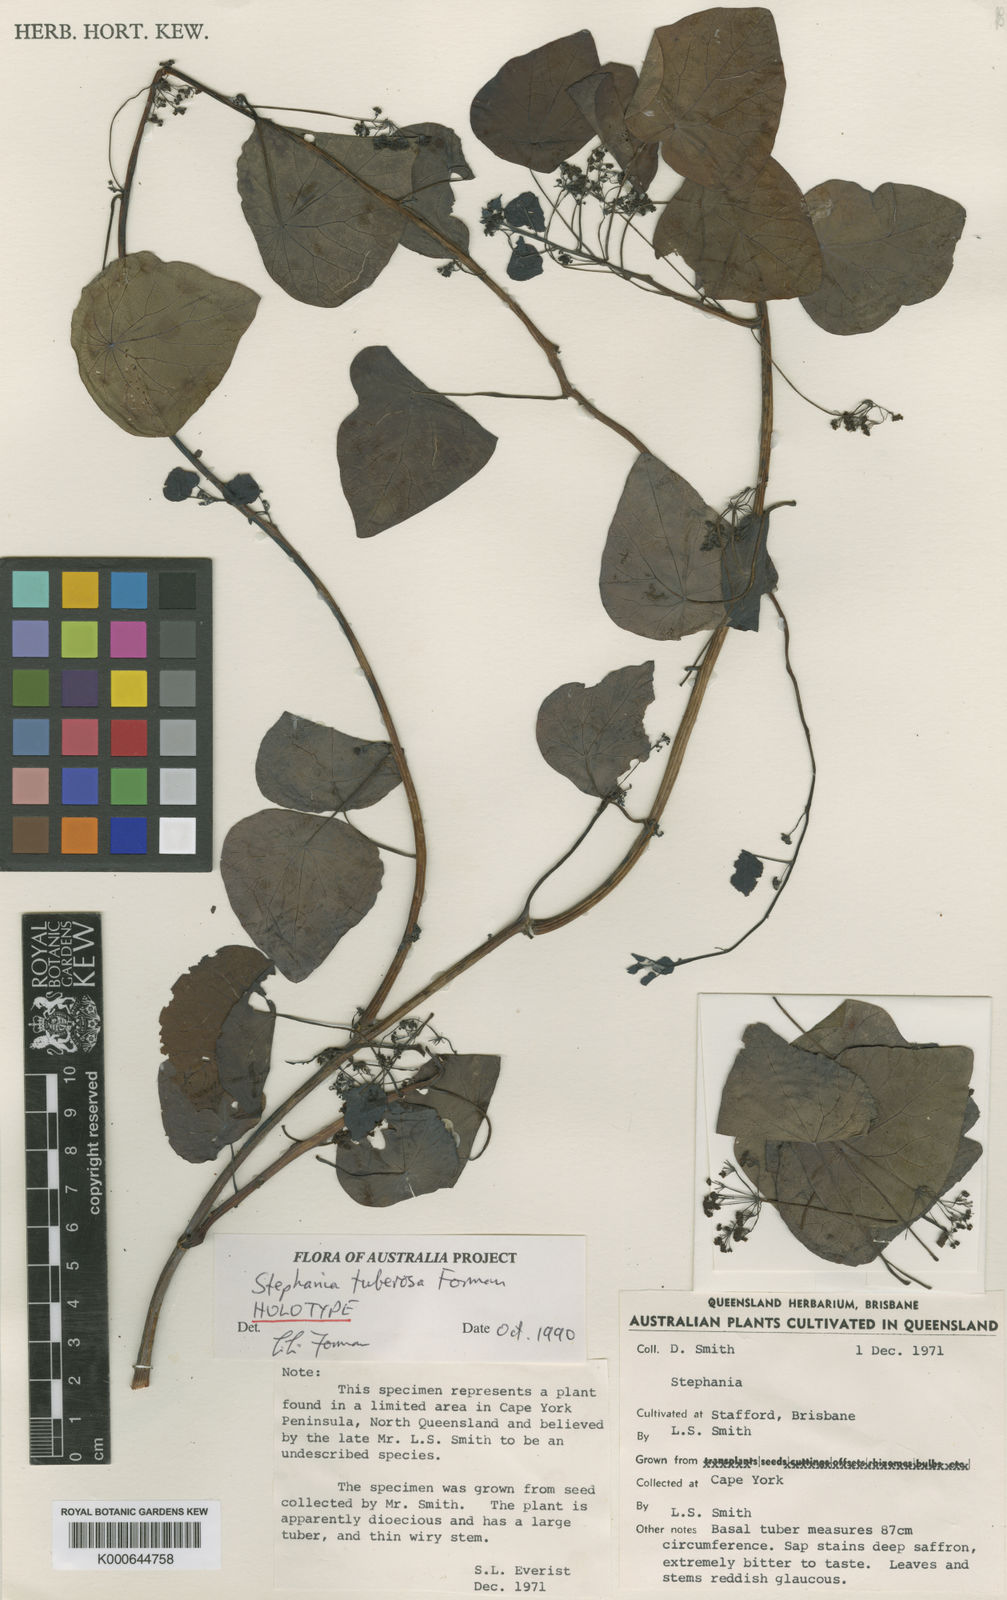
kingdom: Plantae
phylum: Tracheophyta
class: Magnoliopsida
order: Ranunculales
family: Menispermaceae
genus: Stephania
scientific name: Stephania tuberosa
